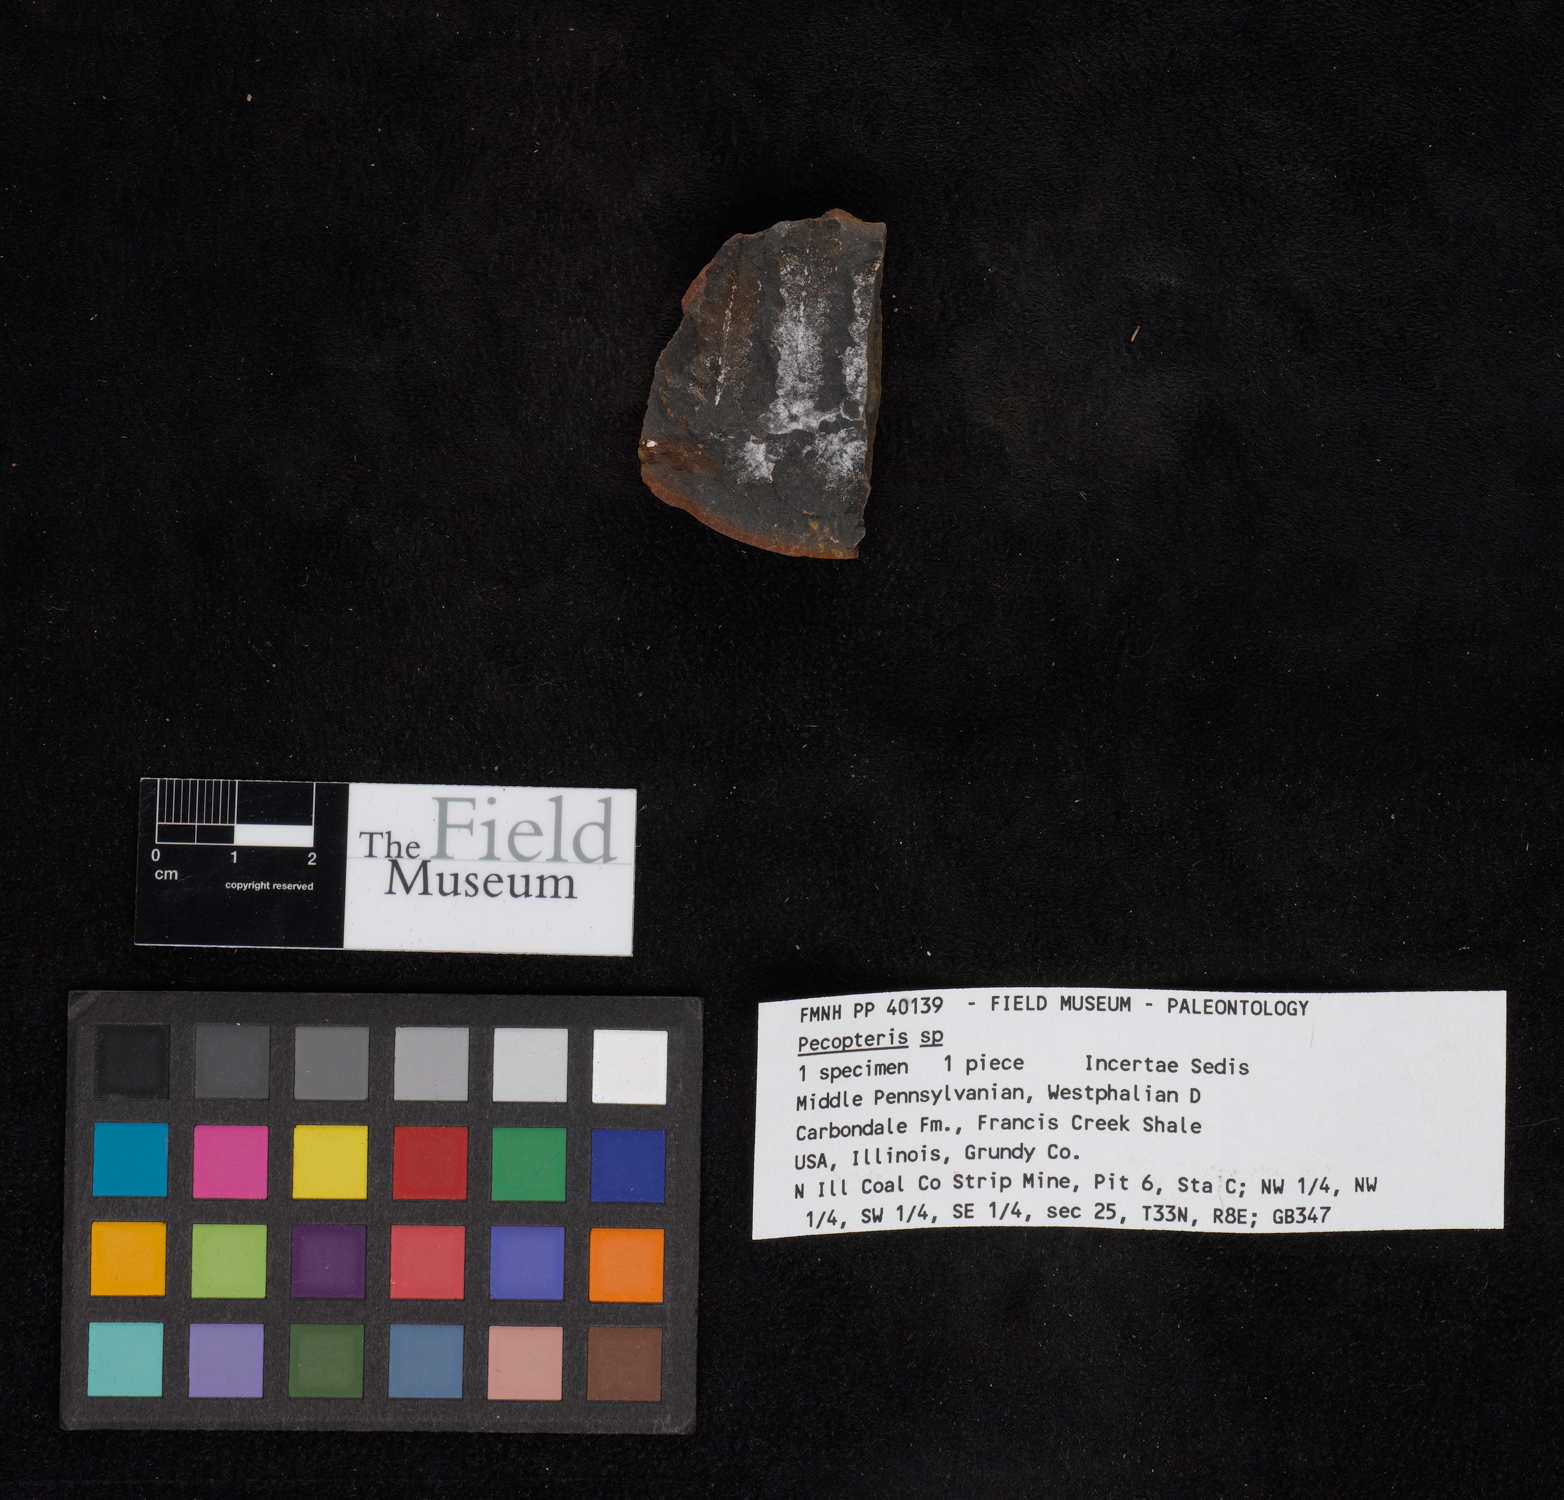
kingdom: Plantae
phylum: Tracheophyta
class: Polypodiopsida
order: Marattiales
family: Asterothecaceae
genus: Pecopteris
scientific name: Pecopteris
